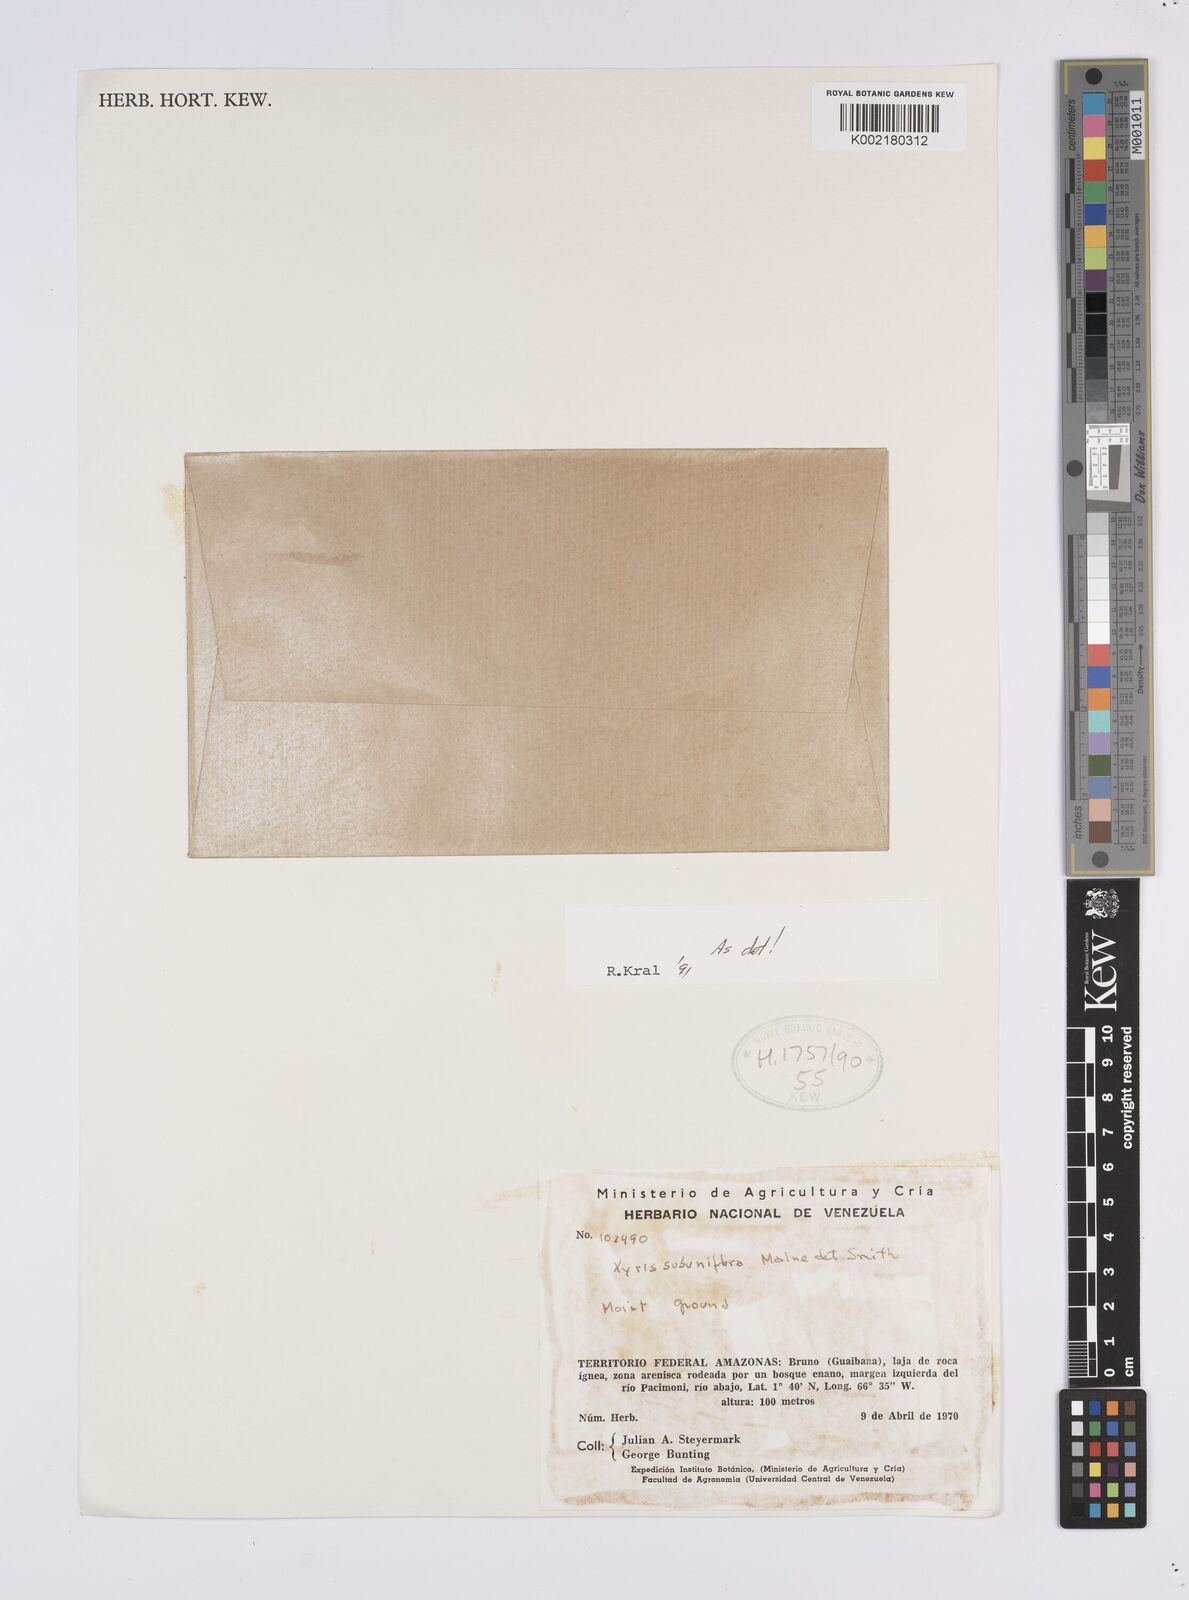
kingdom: Plantae
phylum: Tracheophyta
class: Liliopsida
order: Poales
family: Xyridaceae
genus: Xyris
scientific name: Xyris subuniflora
